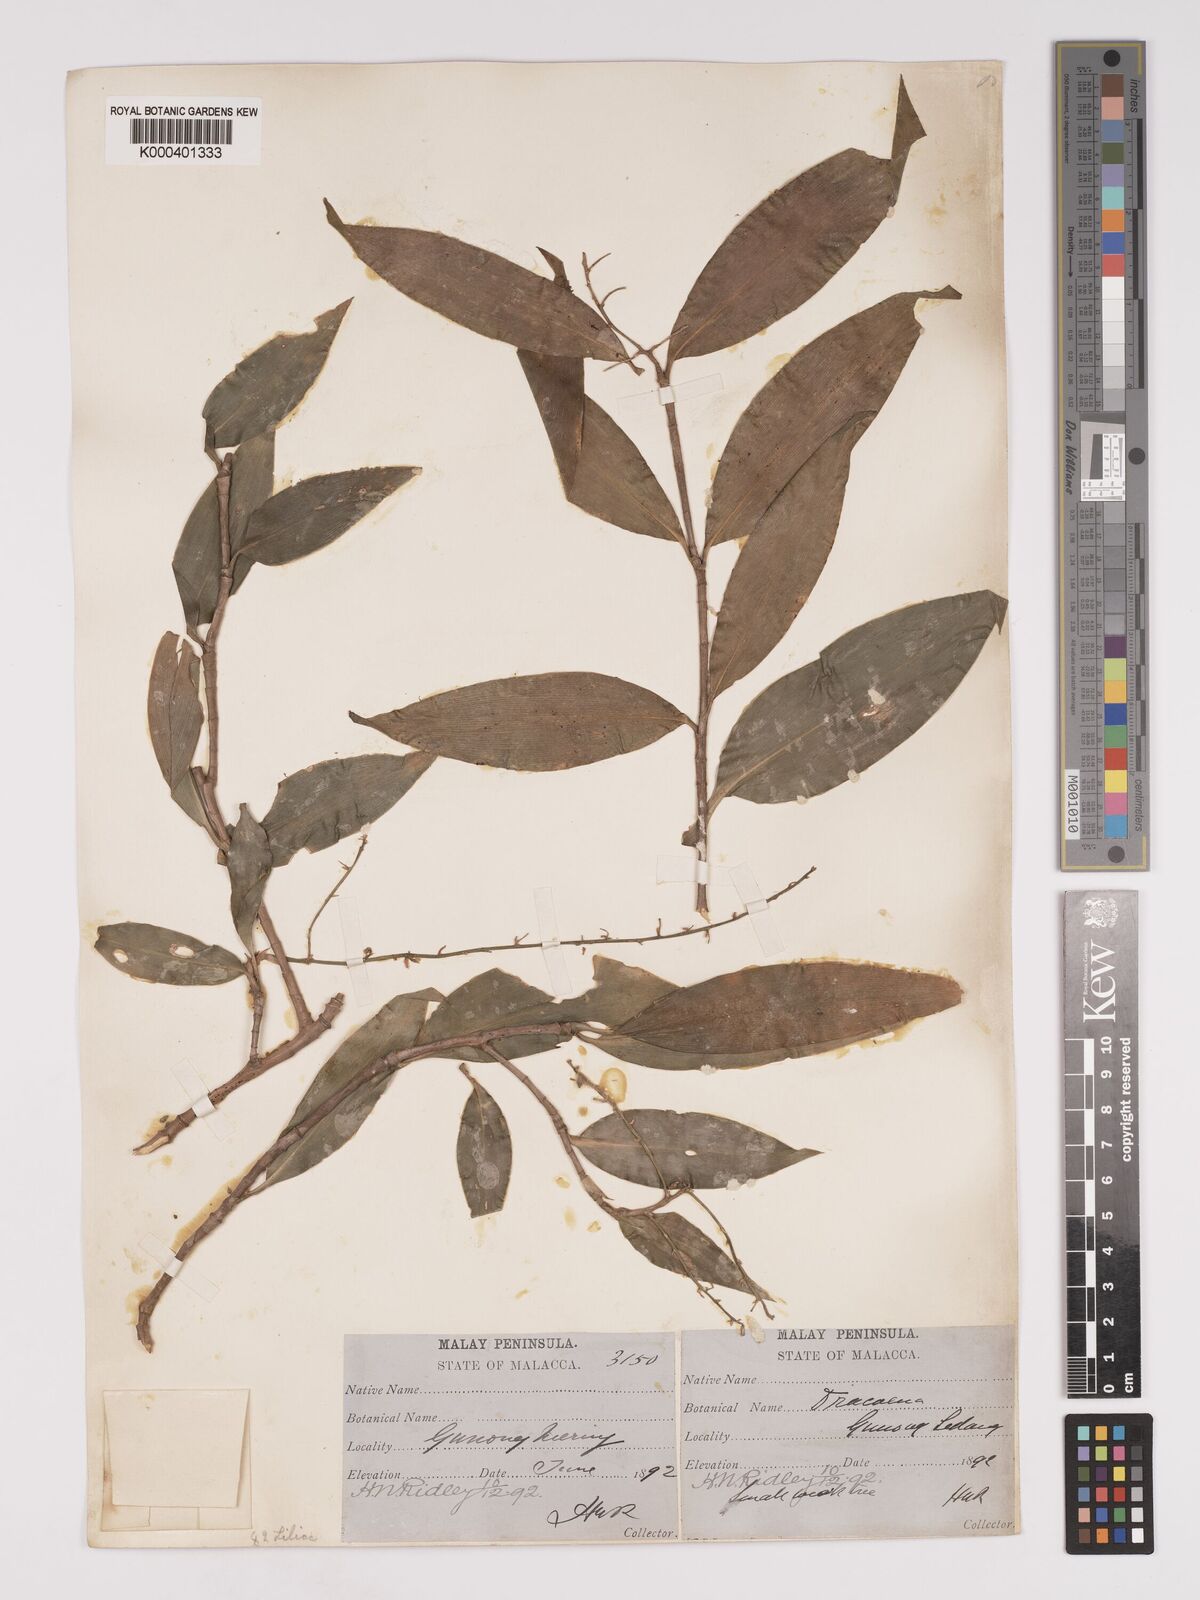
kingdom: Plantae
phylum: Tracheophyta
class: Liliopsida
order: Asparagales
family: Asparagaceae
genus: Dracaena
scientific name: Dracaena elliptica
